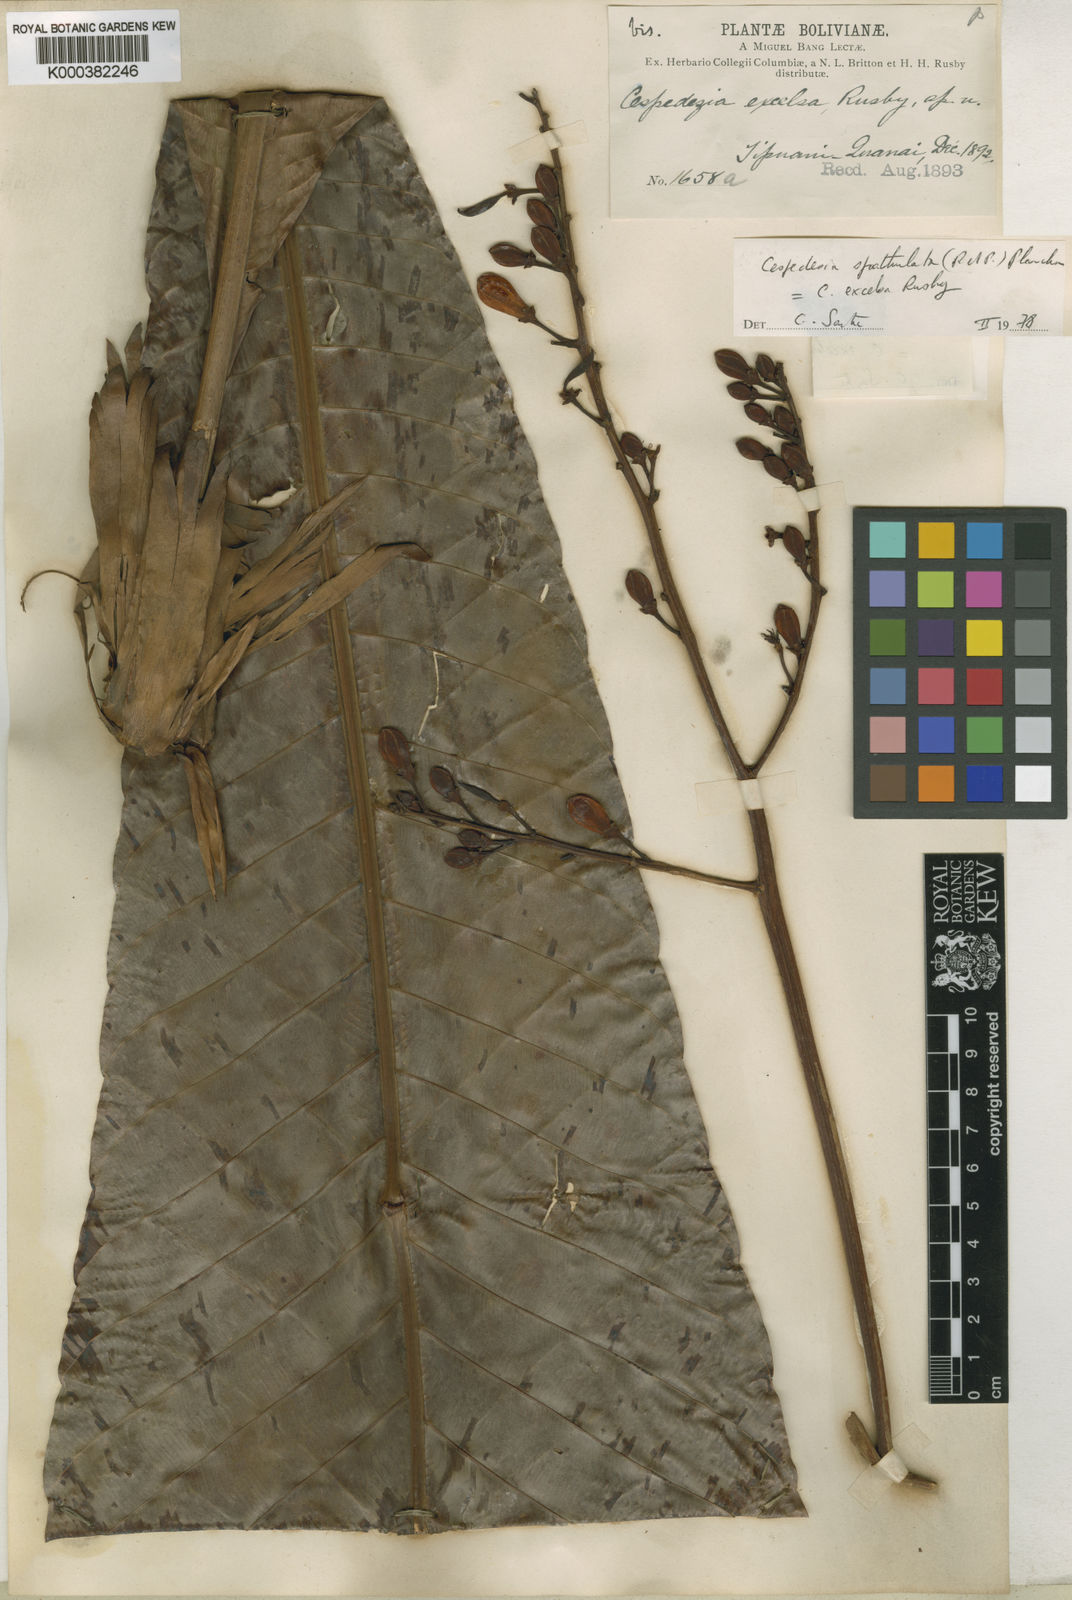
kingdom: Plantae
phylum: Tracheophyta
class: Magnoliopsida
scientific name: Magnoliopsida
